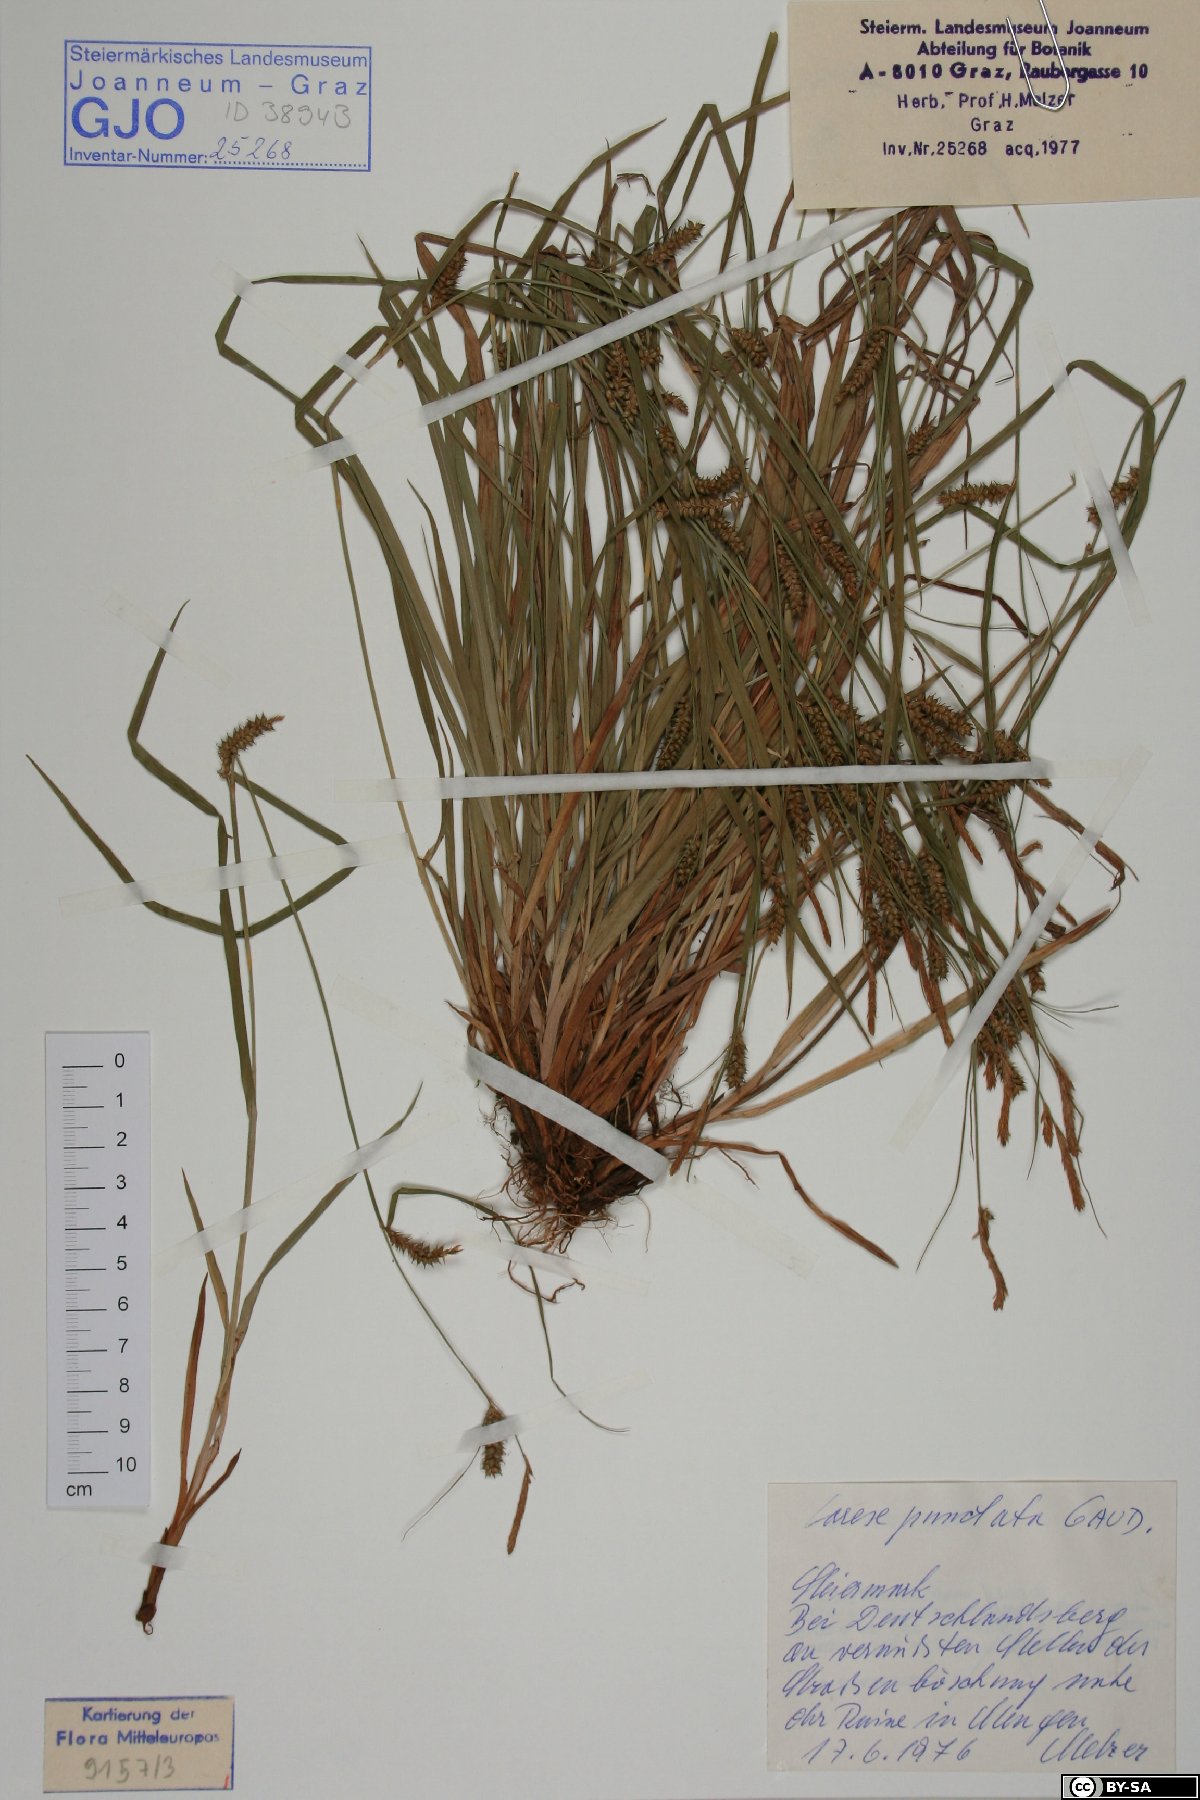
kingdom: Plantae
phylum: Tracheophyta
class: Liliopsida
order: Poales
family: Cyperaceae
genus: Carex
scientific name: Carex punctata
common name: Dotted sedge
